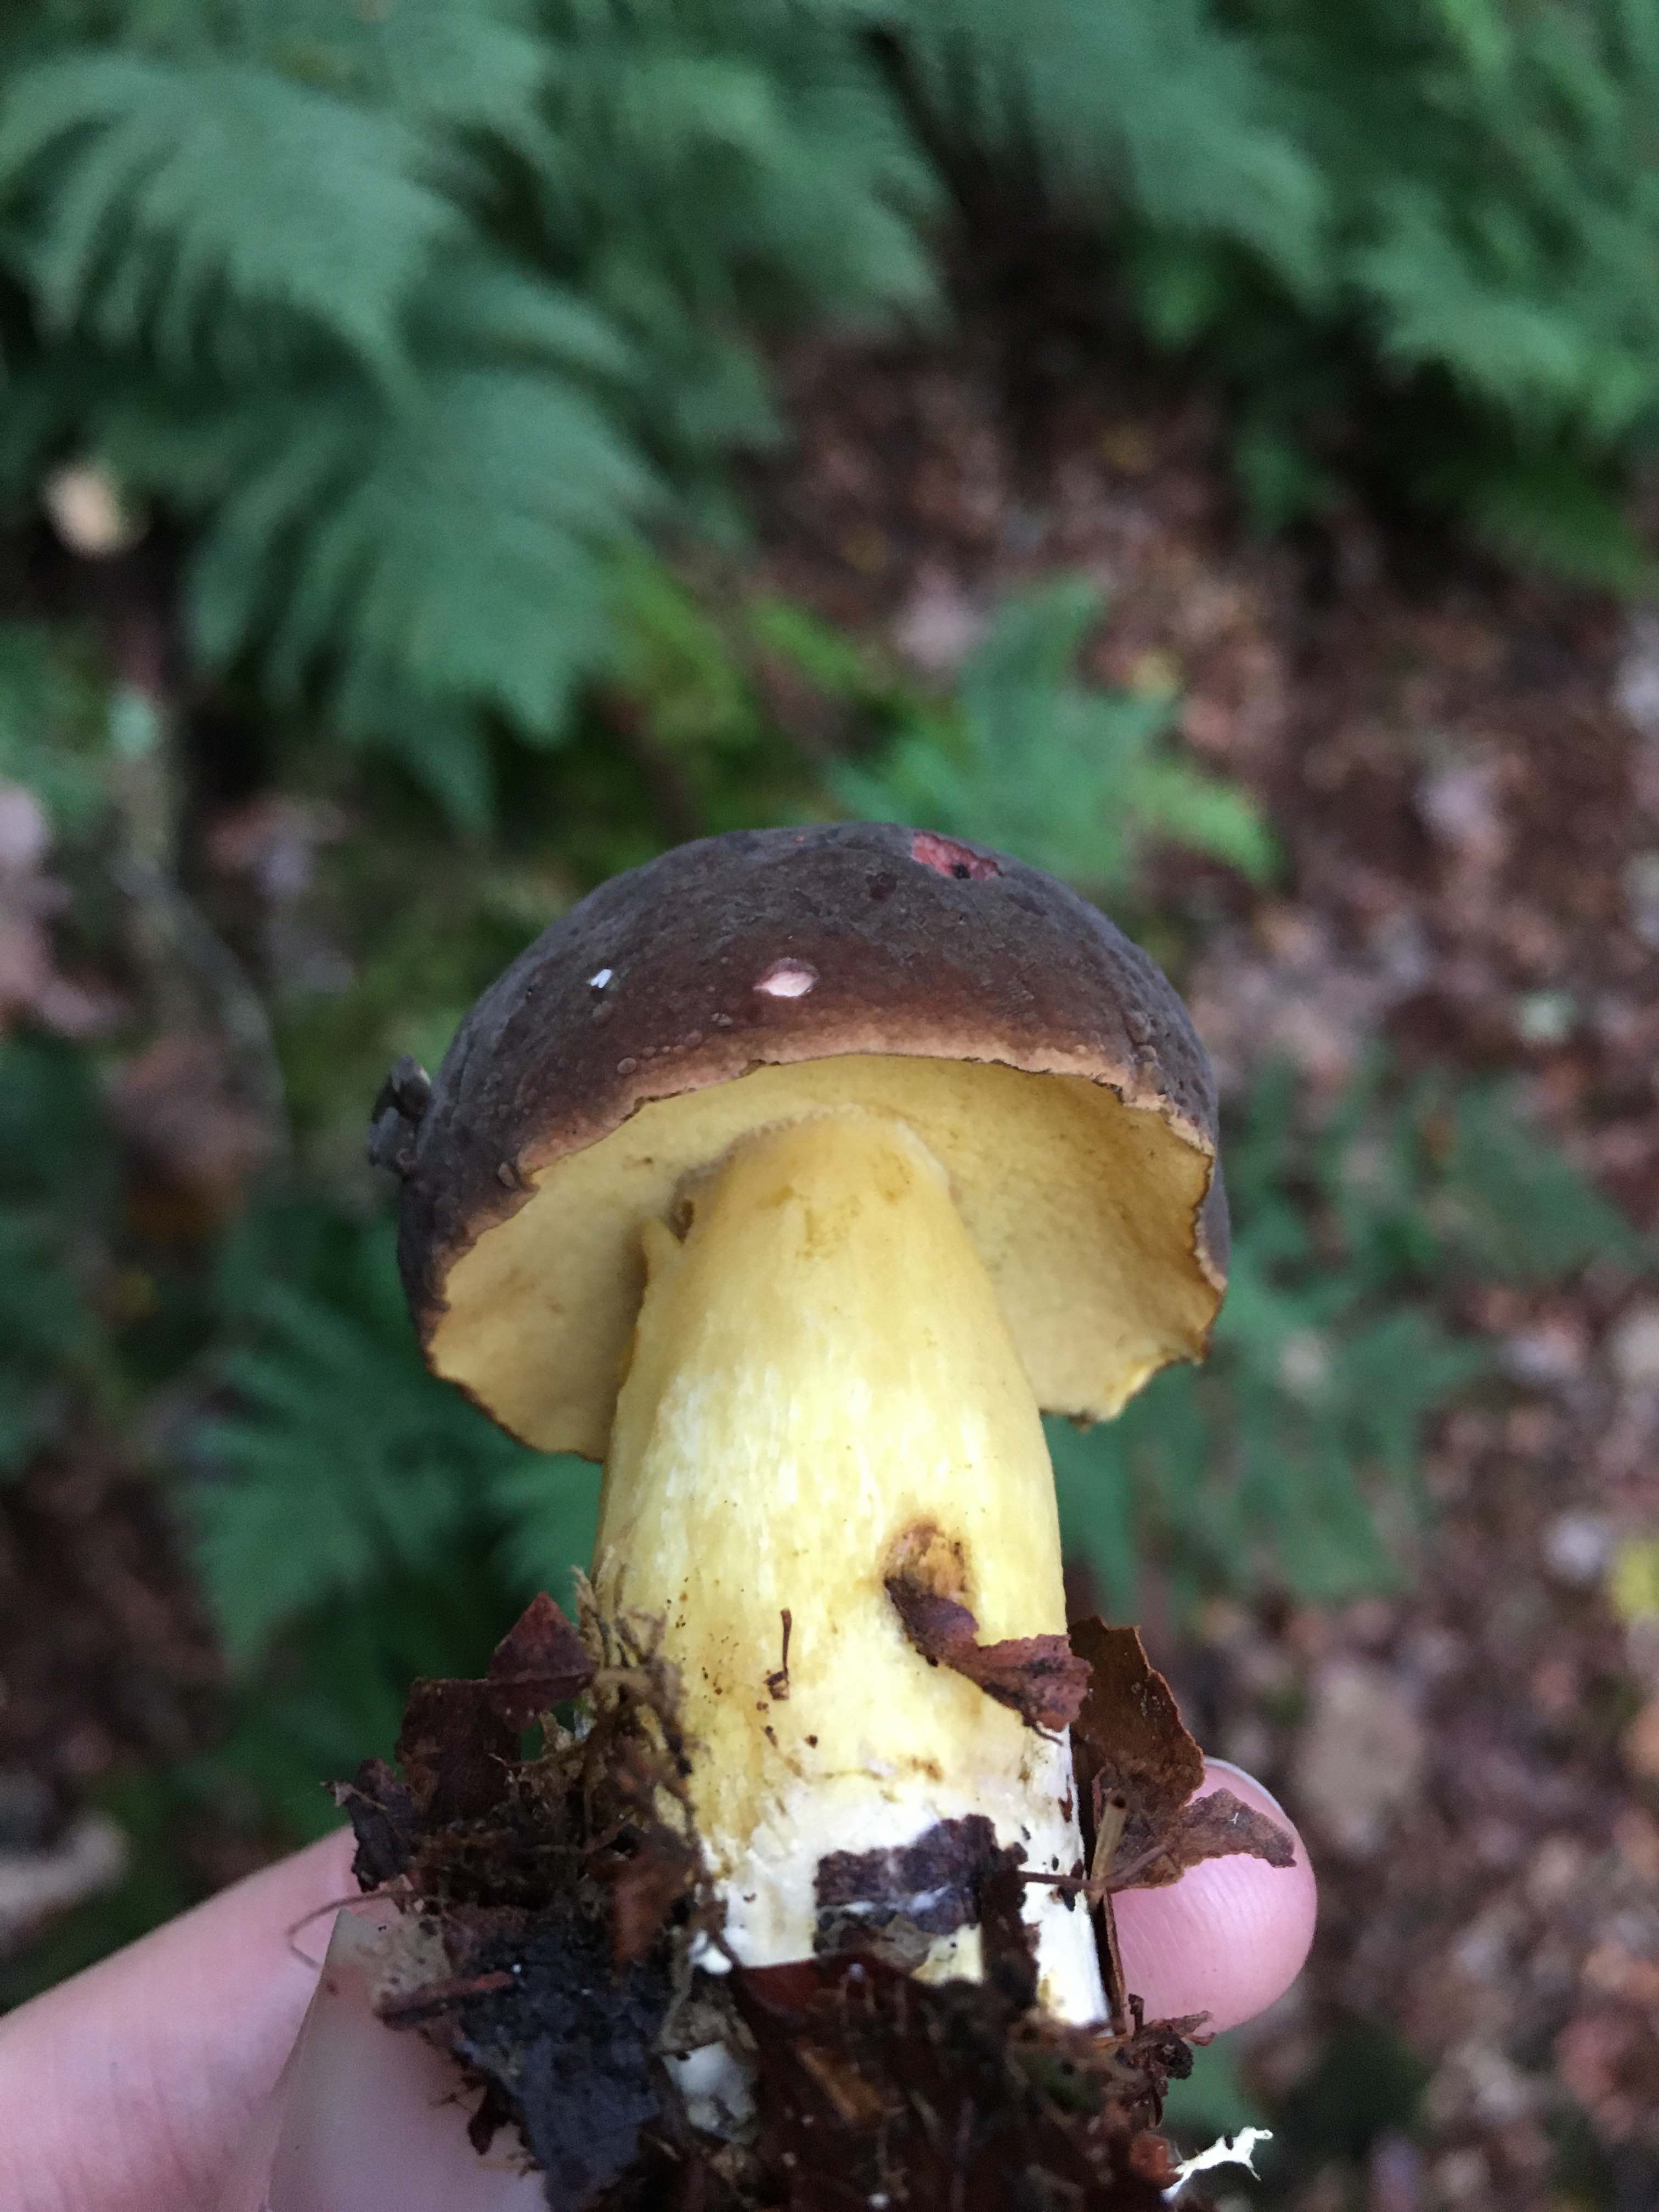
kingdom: Fungi
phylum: Basidiomycota
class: Agaricomycetes
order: Boletales
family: Boletaceae
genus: Xerocomellus
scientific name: Xerocomellus pruinatus
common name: dugget rørhat
